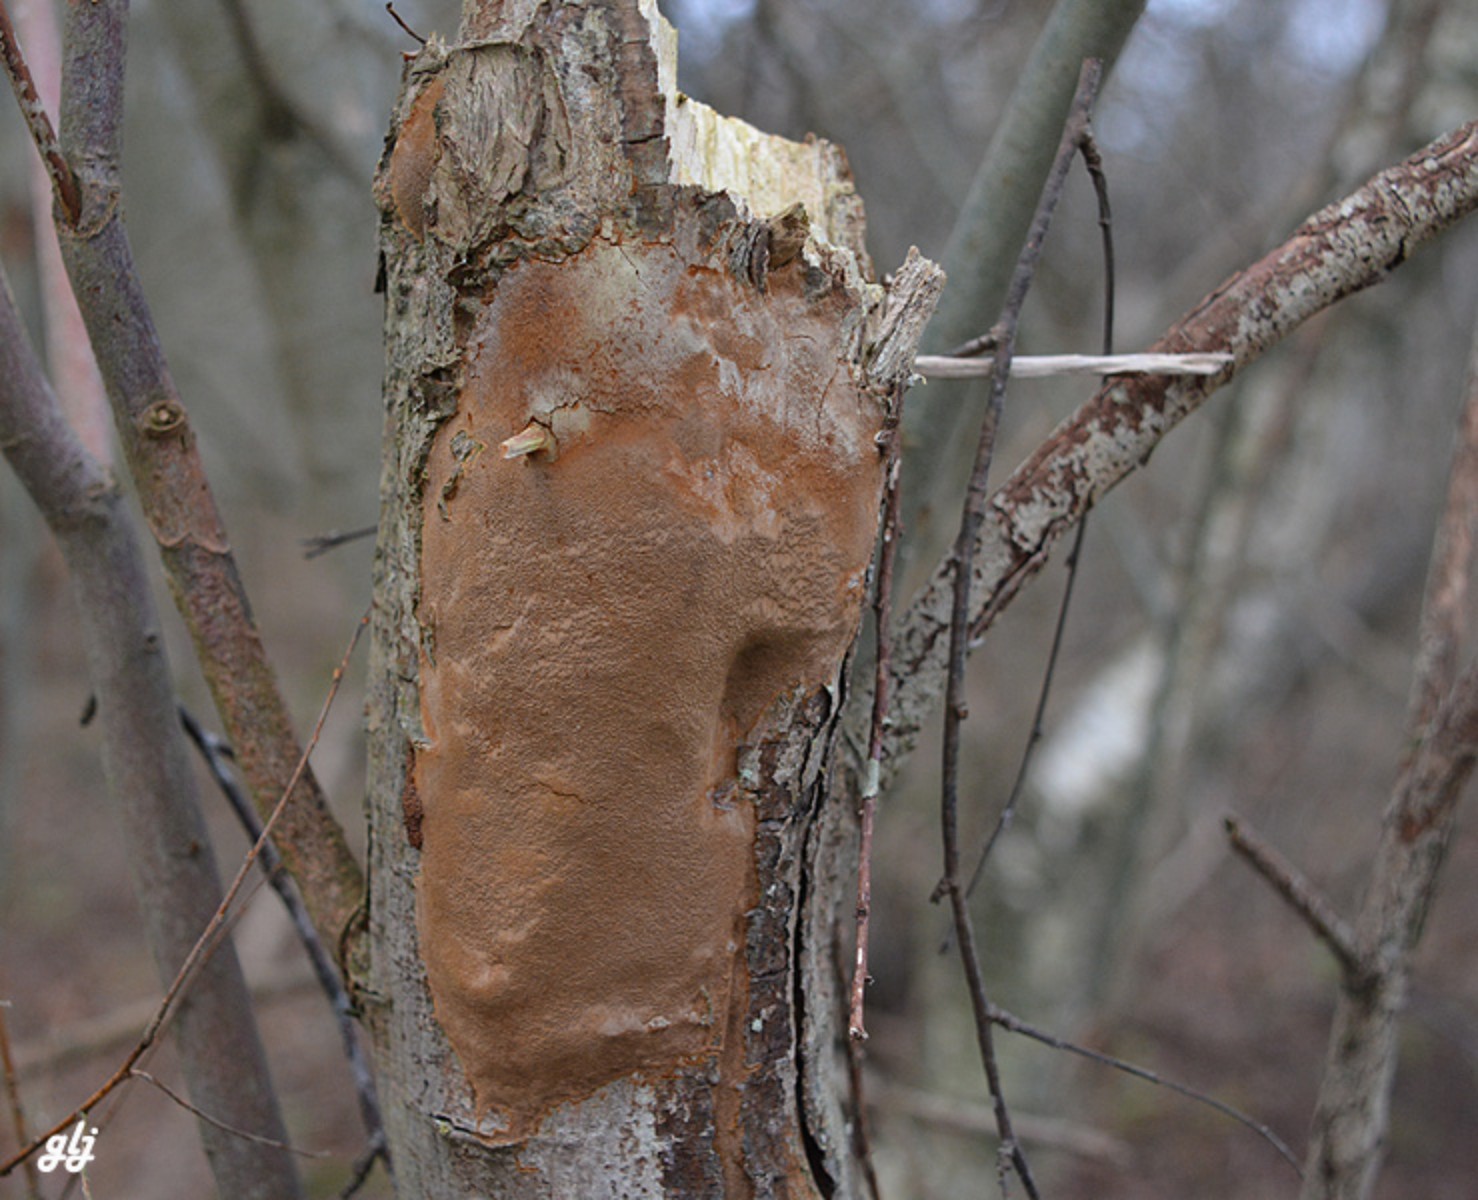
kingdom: Fungi
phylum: Basidiomycota
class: Agaricomycetes
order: Hymenochaetales
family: Hymenochaetaceae
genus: Fomitiporia
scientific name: Fomitiporia punctata
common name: pude-ildporesvamp
